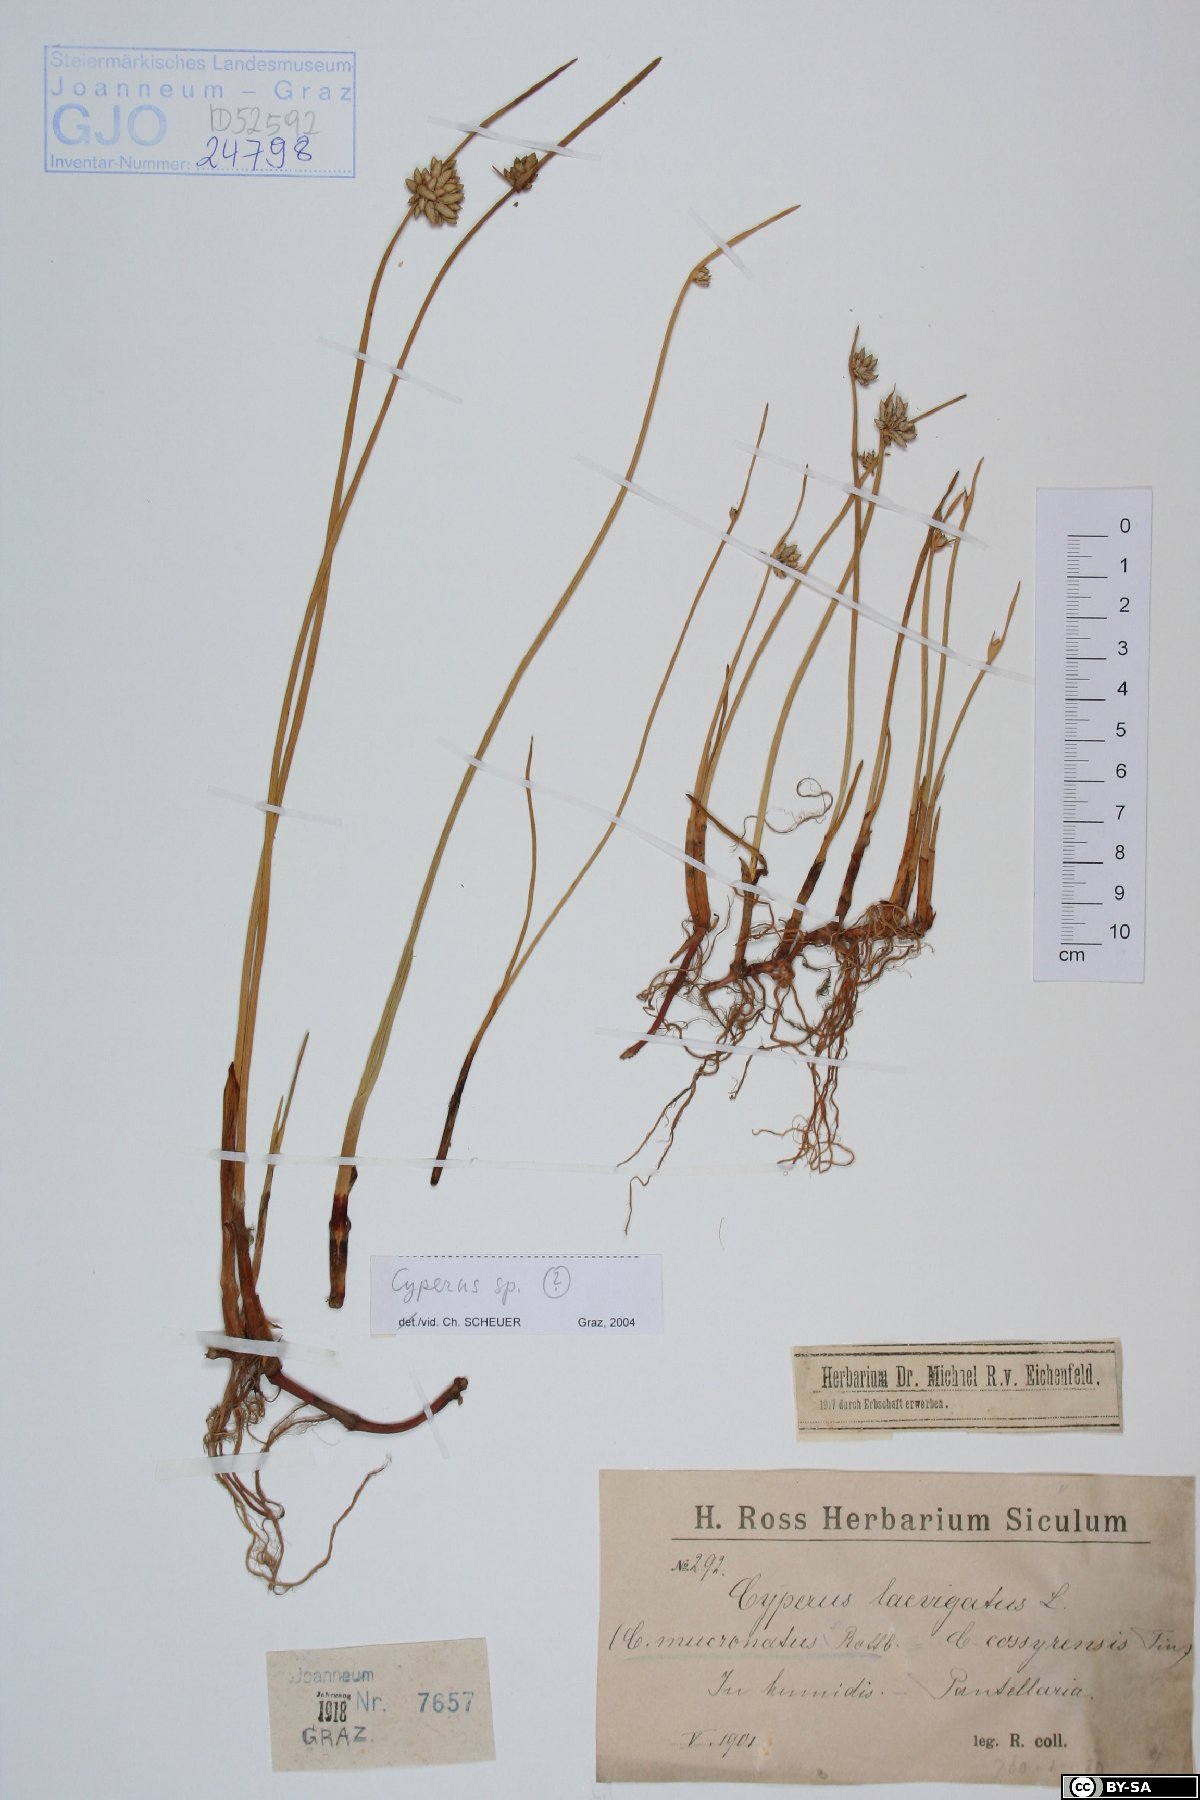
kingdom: Plantae
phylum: Tracheophyta
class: Liliopsida
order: Poales
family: Cyperaceae
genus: Cyperus
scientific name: Cyperus
